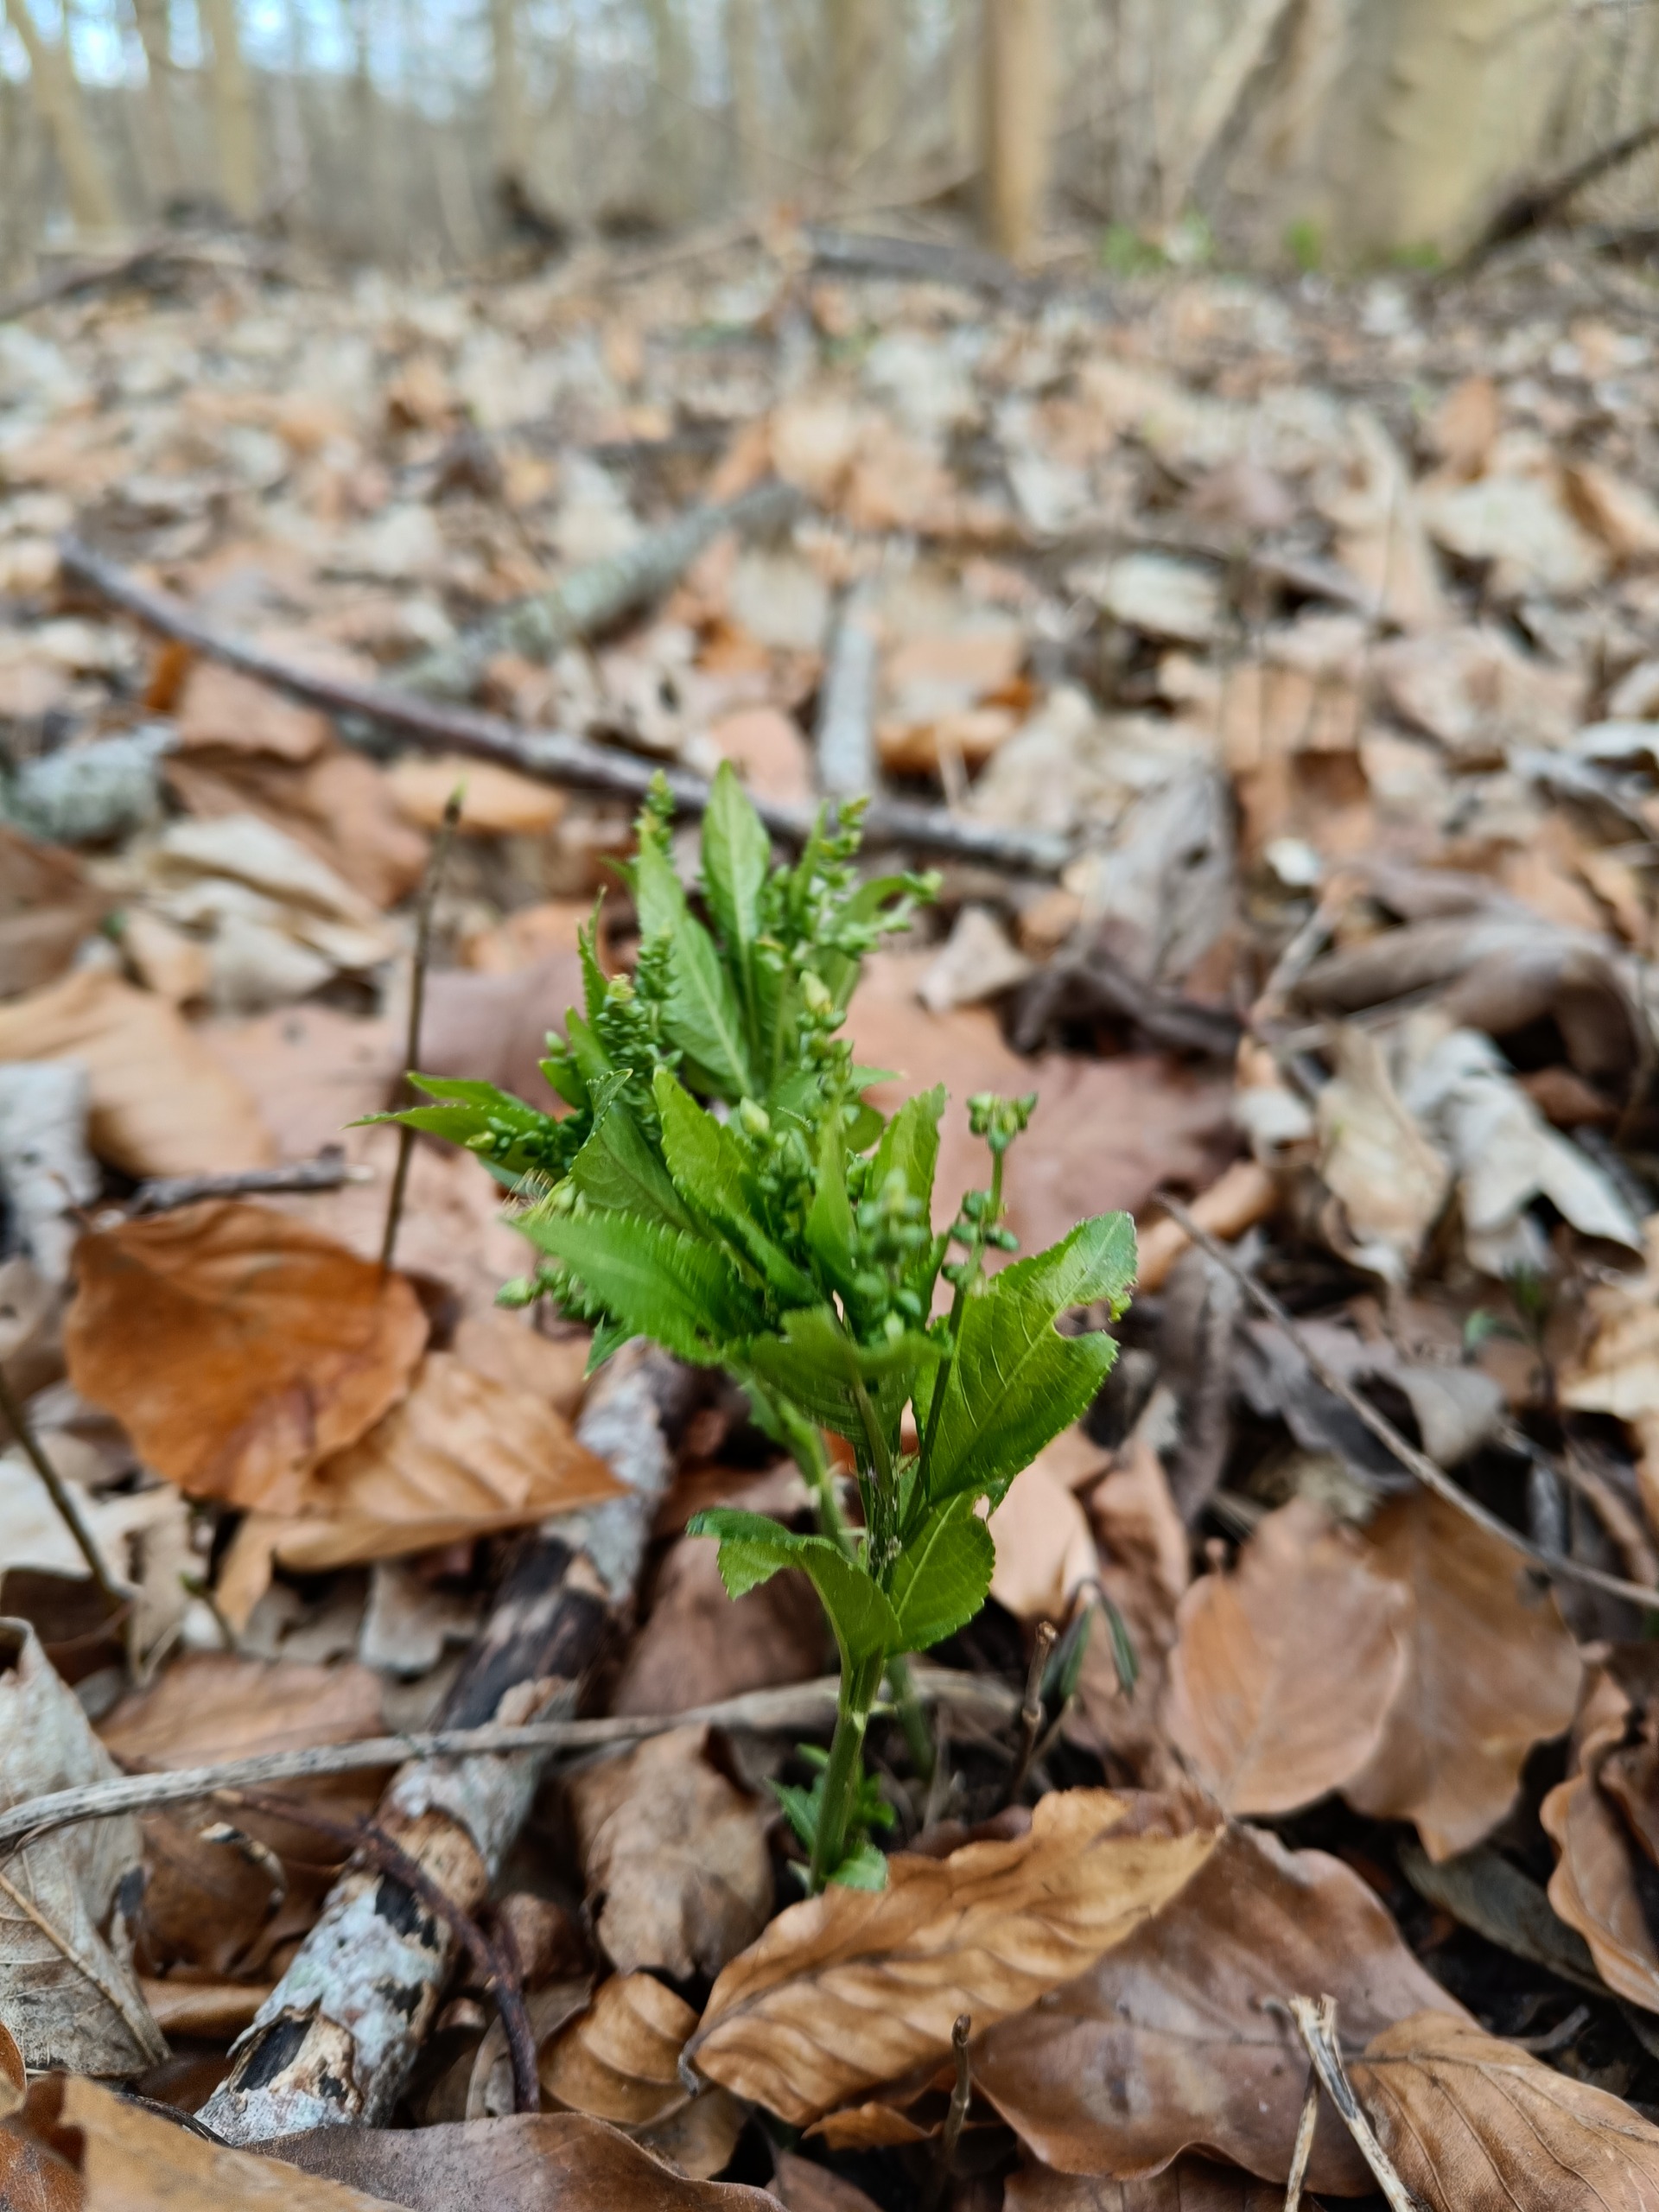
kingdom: Plantae
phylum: Tracheophyta
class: Magnoliopsida
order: Malpighiales
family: Euphorbiaceae
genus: Mercurialis
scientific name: Mercurialis perennis
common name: Almindelig bingelurt
